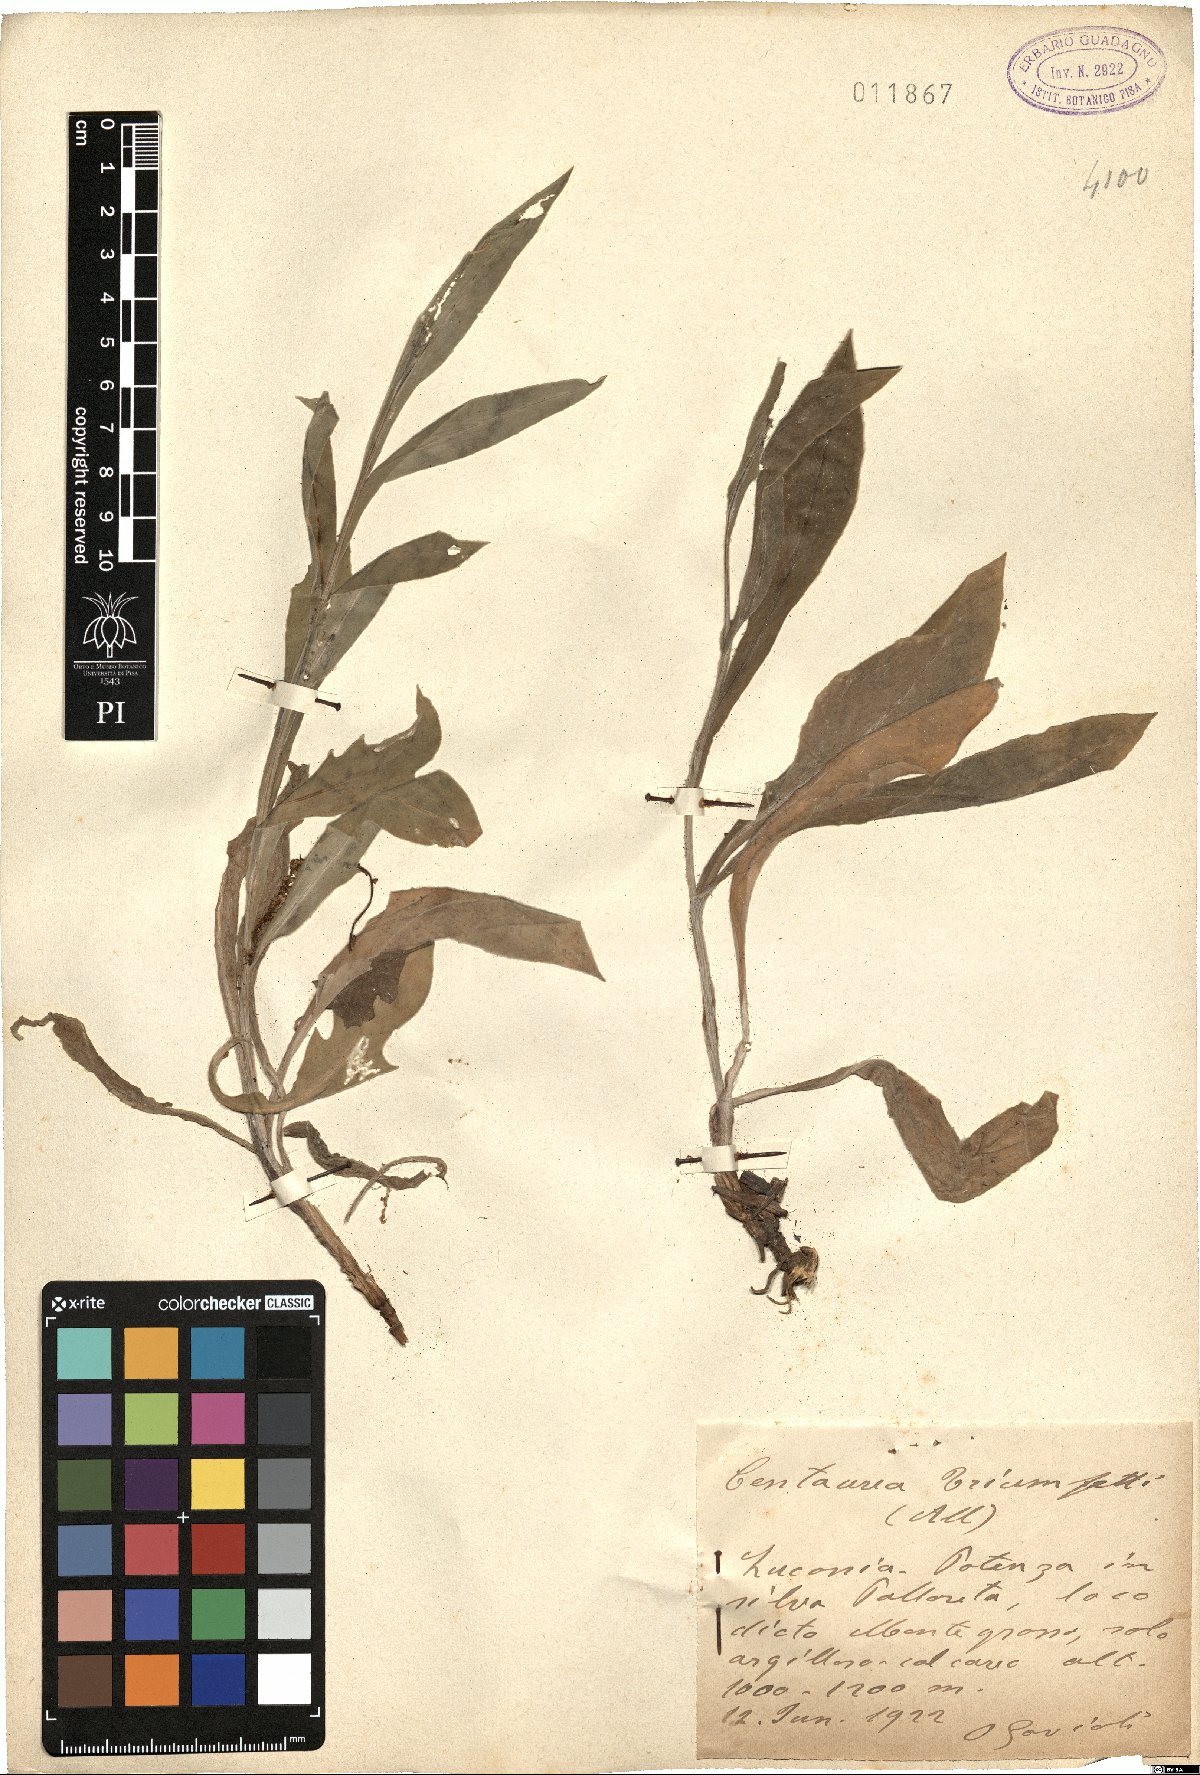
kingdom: Plantae
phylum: Tracheophyta
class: Magnoliopsida
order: Asterales
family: Asteraceae
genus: Centaurea
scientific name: Centaurea triumfettii
